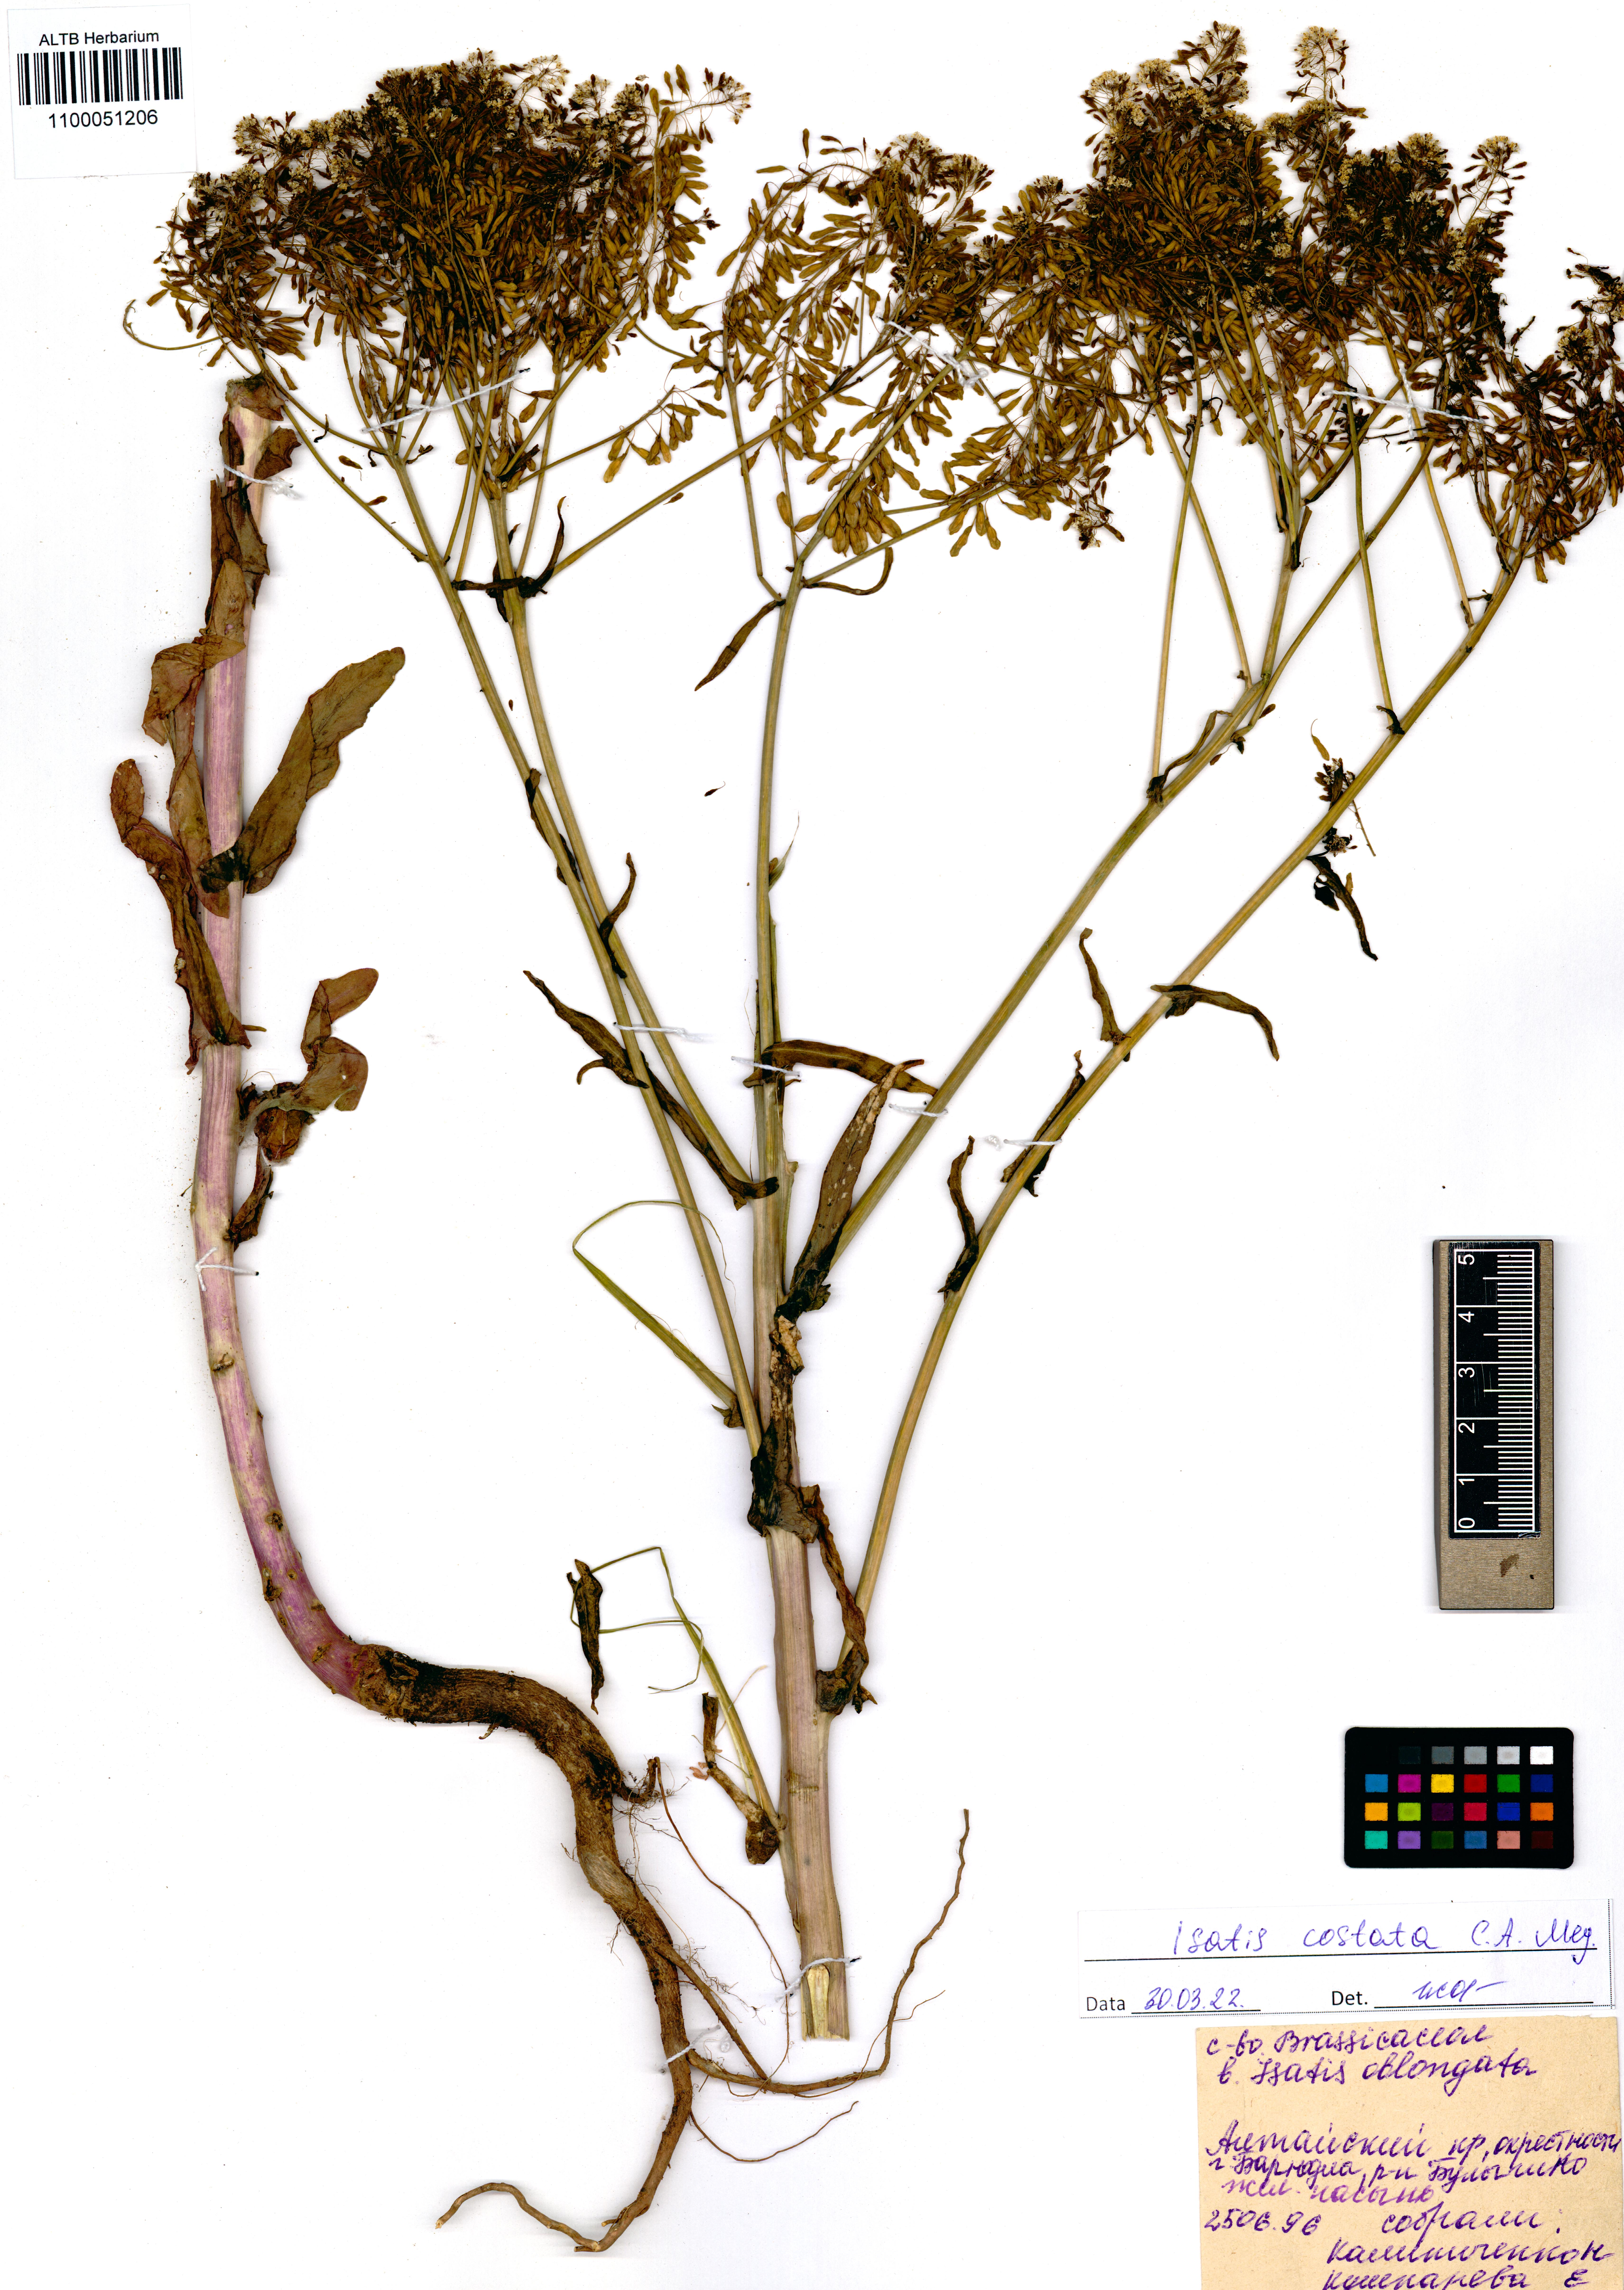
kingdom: Plantae
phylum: Tracheophyta
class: Magnoliopsida
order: Brassicales
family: Brassicaceae
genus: Isatis
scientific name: Isatis costata
